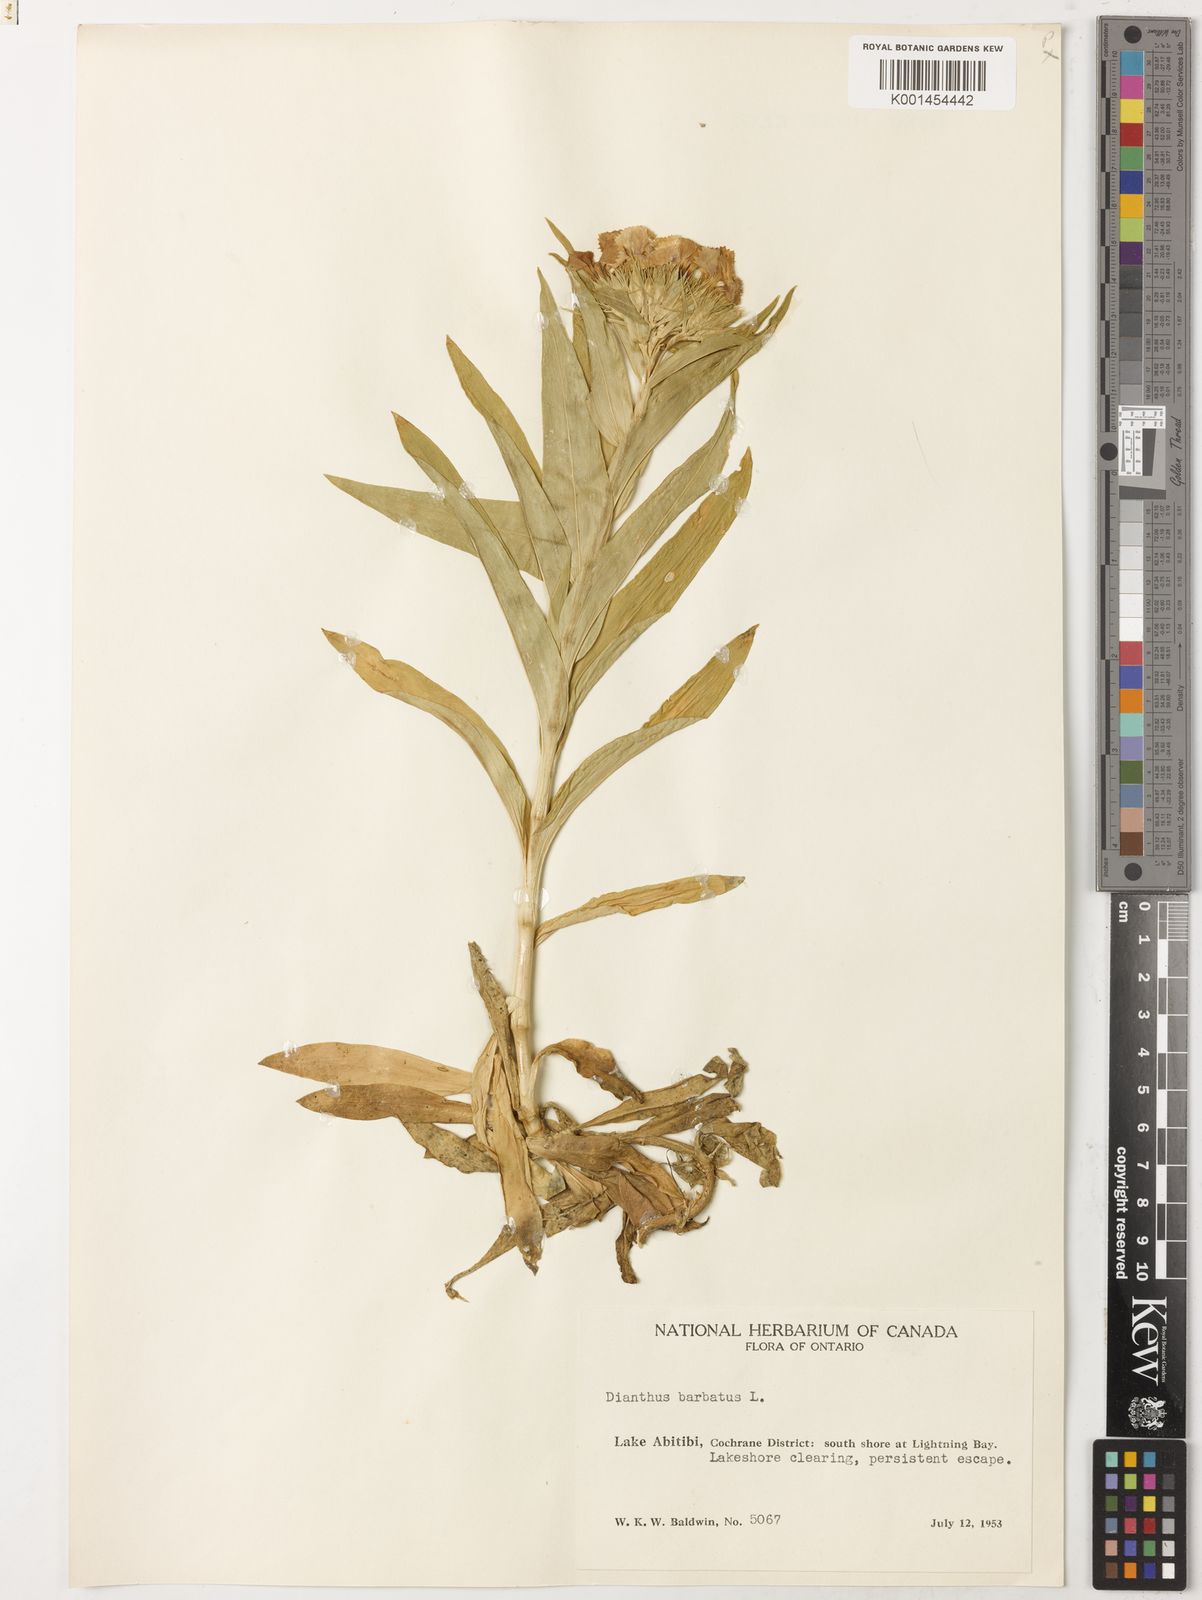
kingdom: Plantae
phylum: Tracheophyta
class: Magnoliopsida
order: Caryophyllales
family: Caryophyllaceae
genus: Dianthus
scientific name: Dianthus barbatus
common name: Sweet-william
